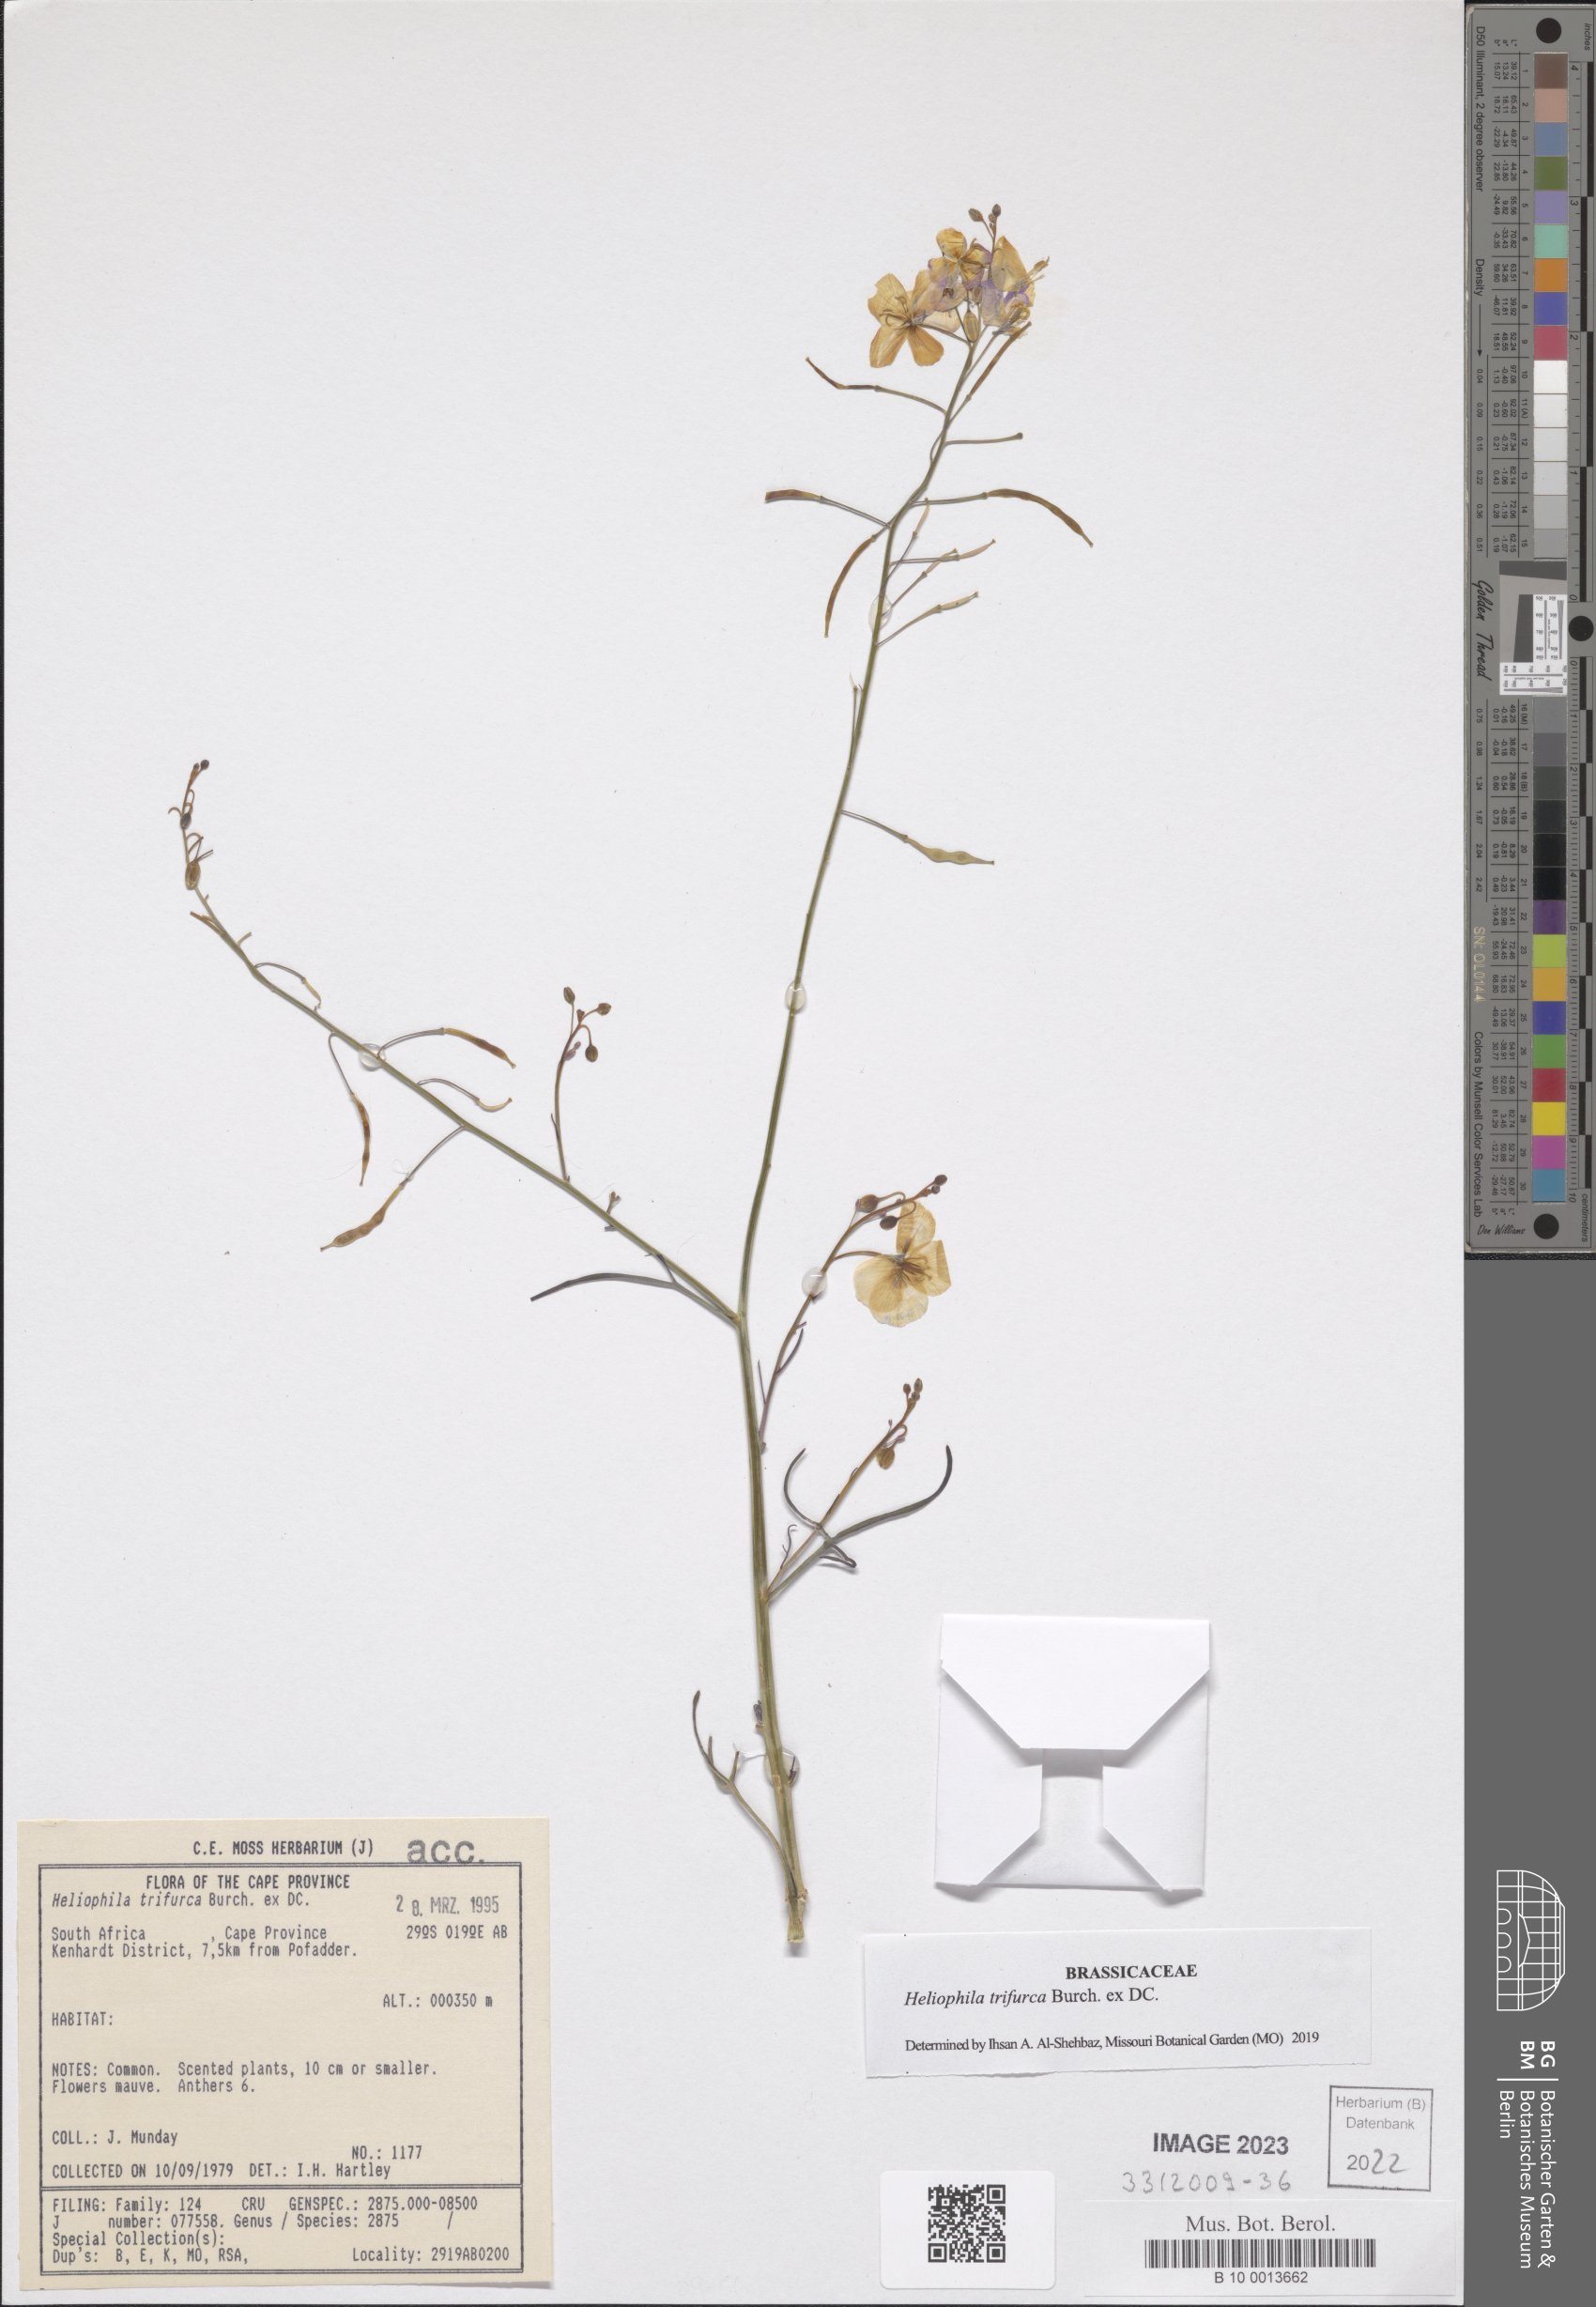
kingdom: Plantae
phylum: Tracheophyta
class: Magnoliopsida
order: Brassicales
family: Brassicaceae
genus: Heliophila
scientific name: Heliophila trifurca
